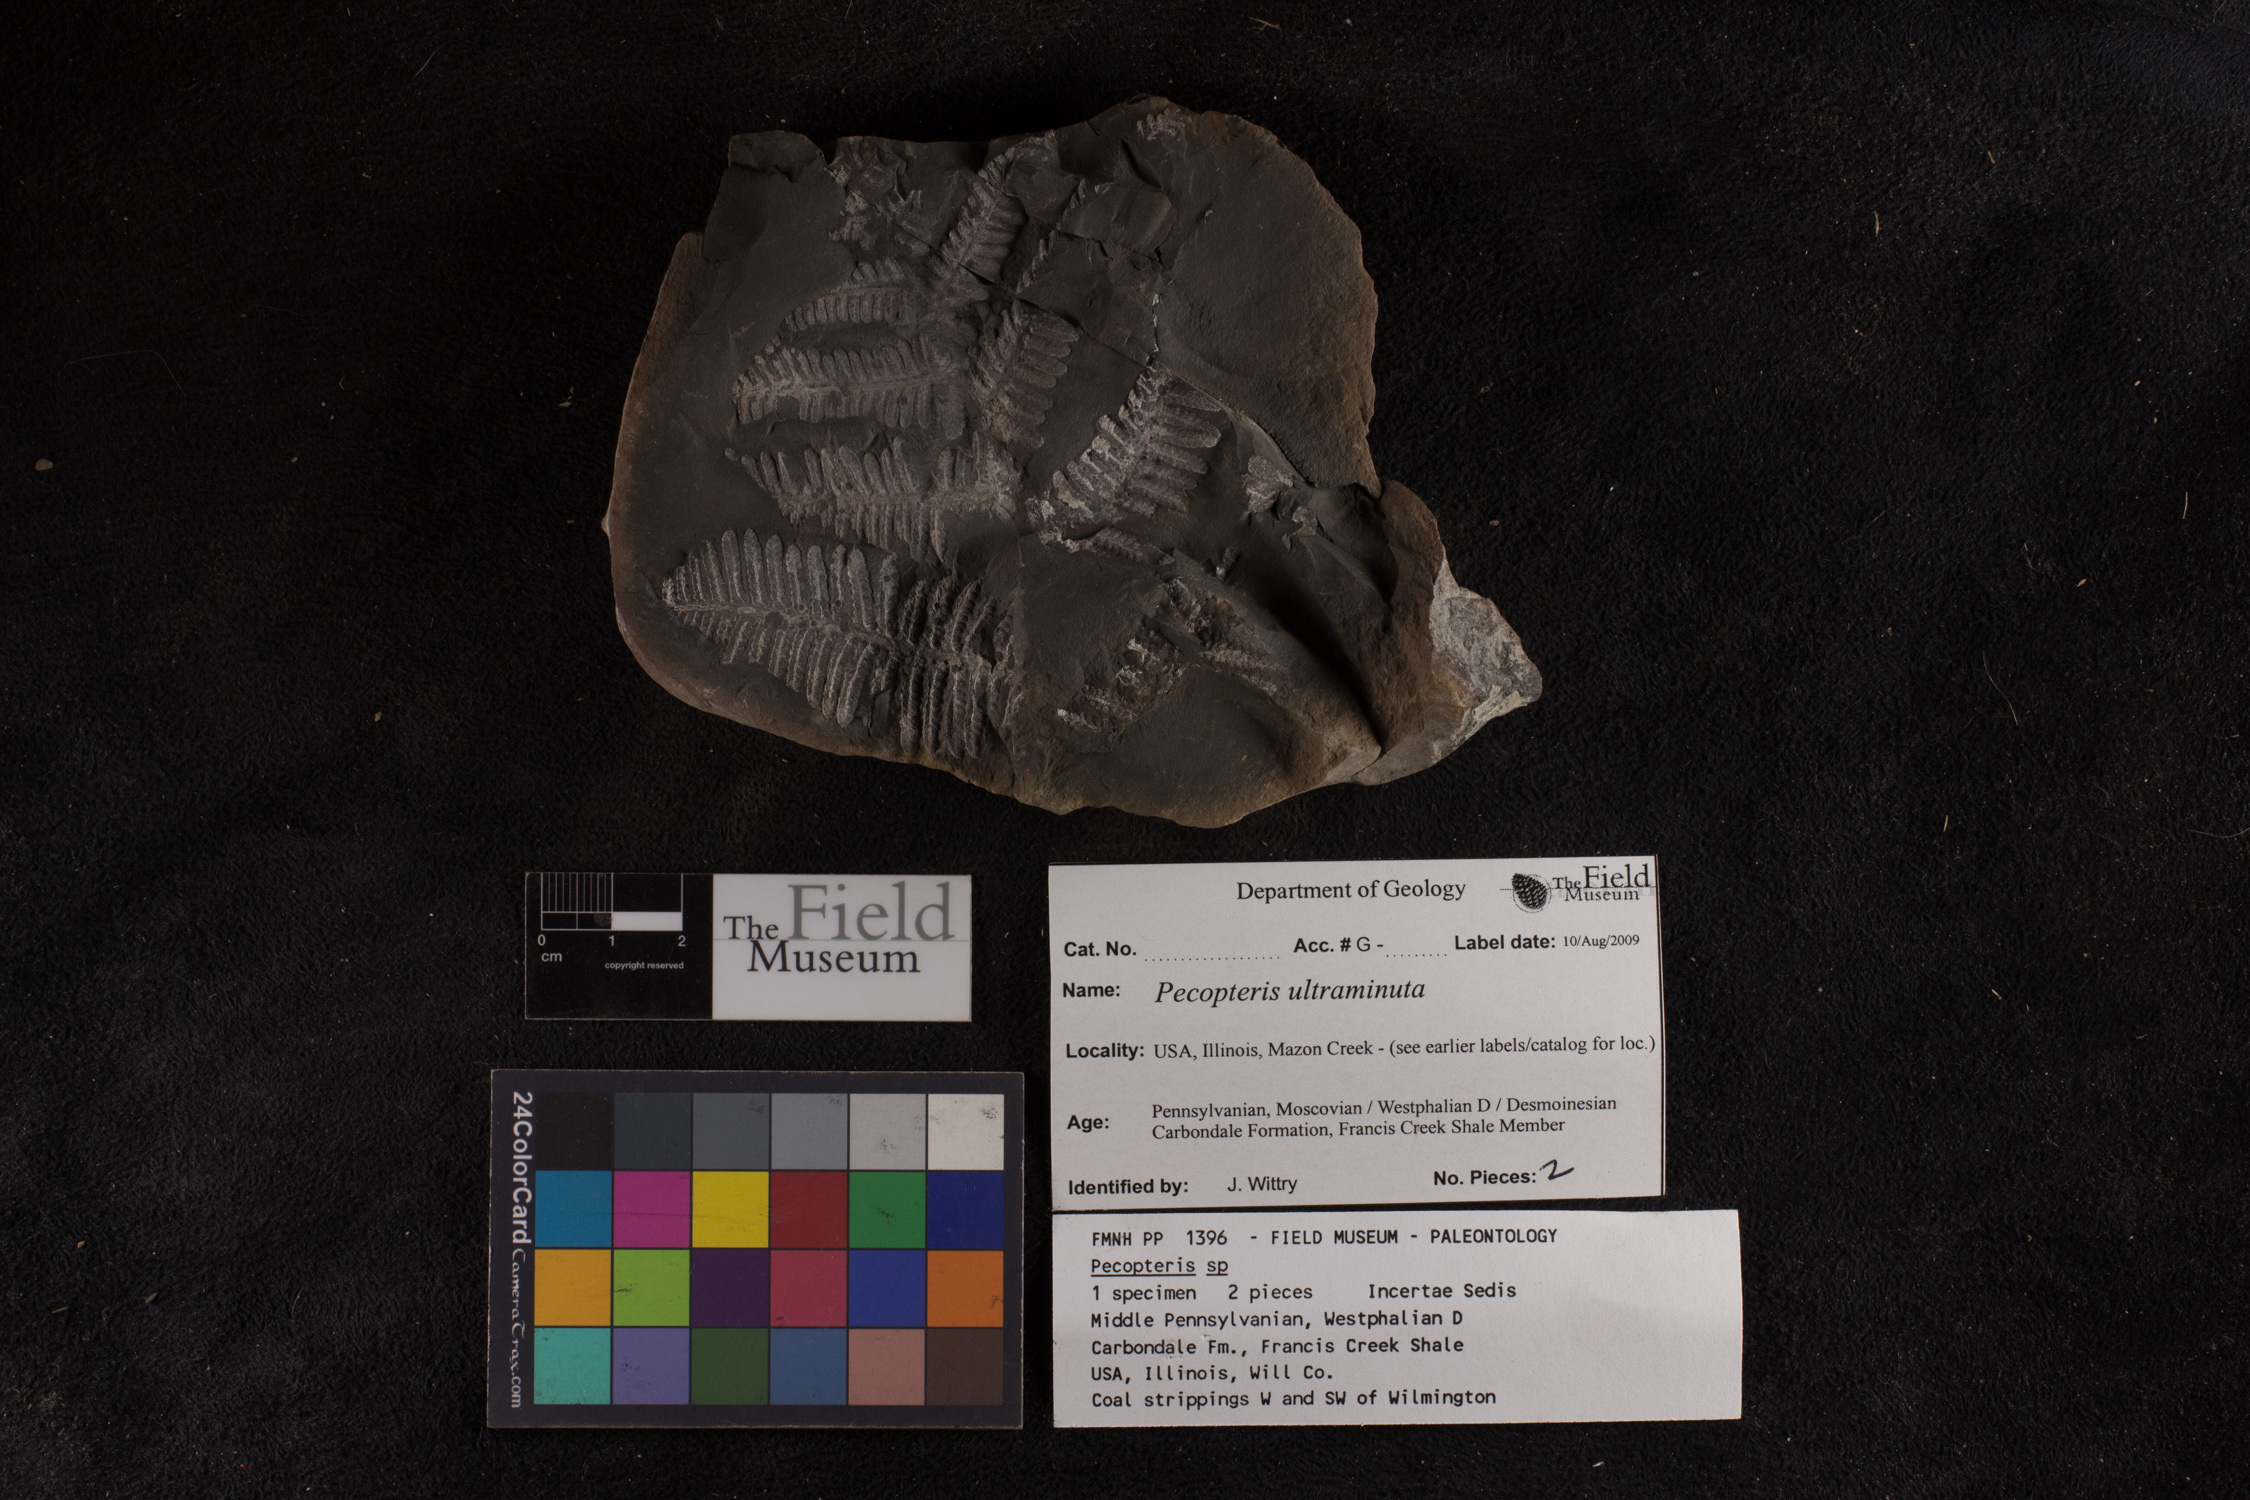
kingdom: Plantae
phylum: Tracheophyta
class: Polypodiopsida
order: Marattiales
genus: Cyathocarpus
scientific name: Cyathocarpus
